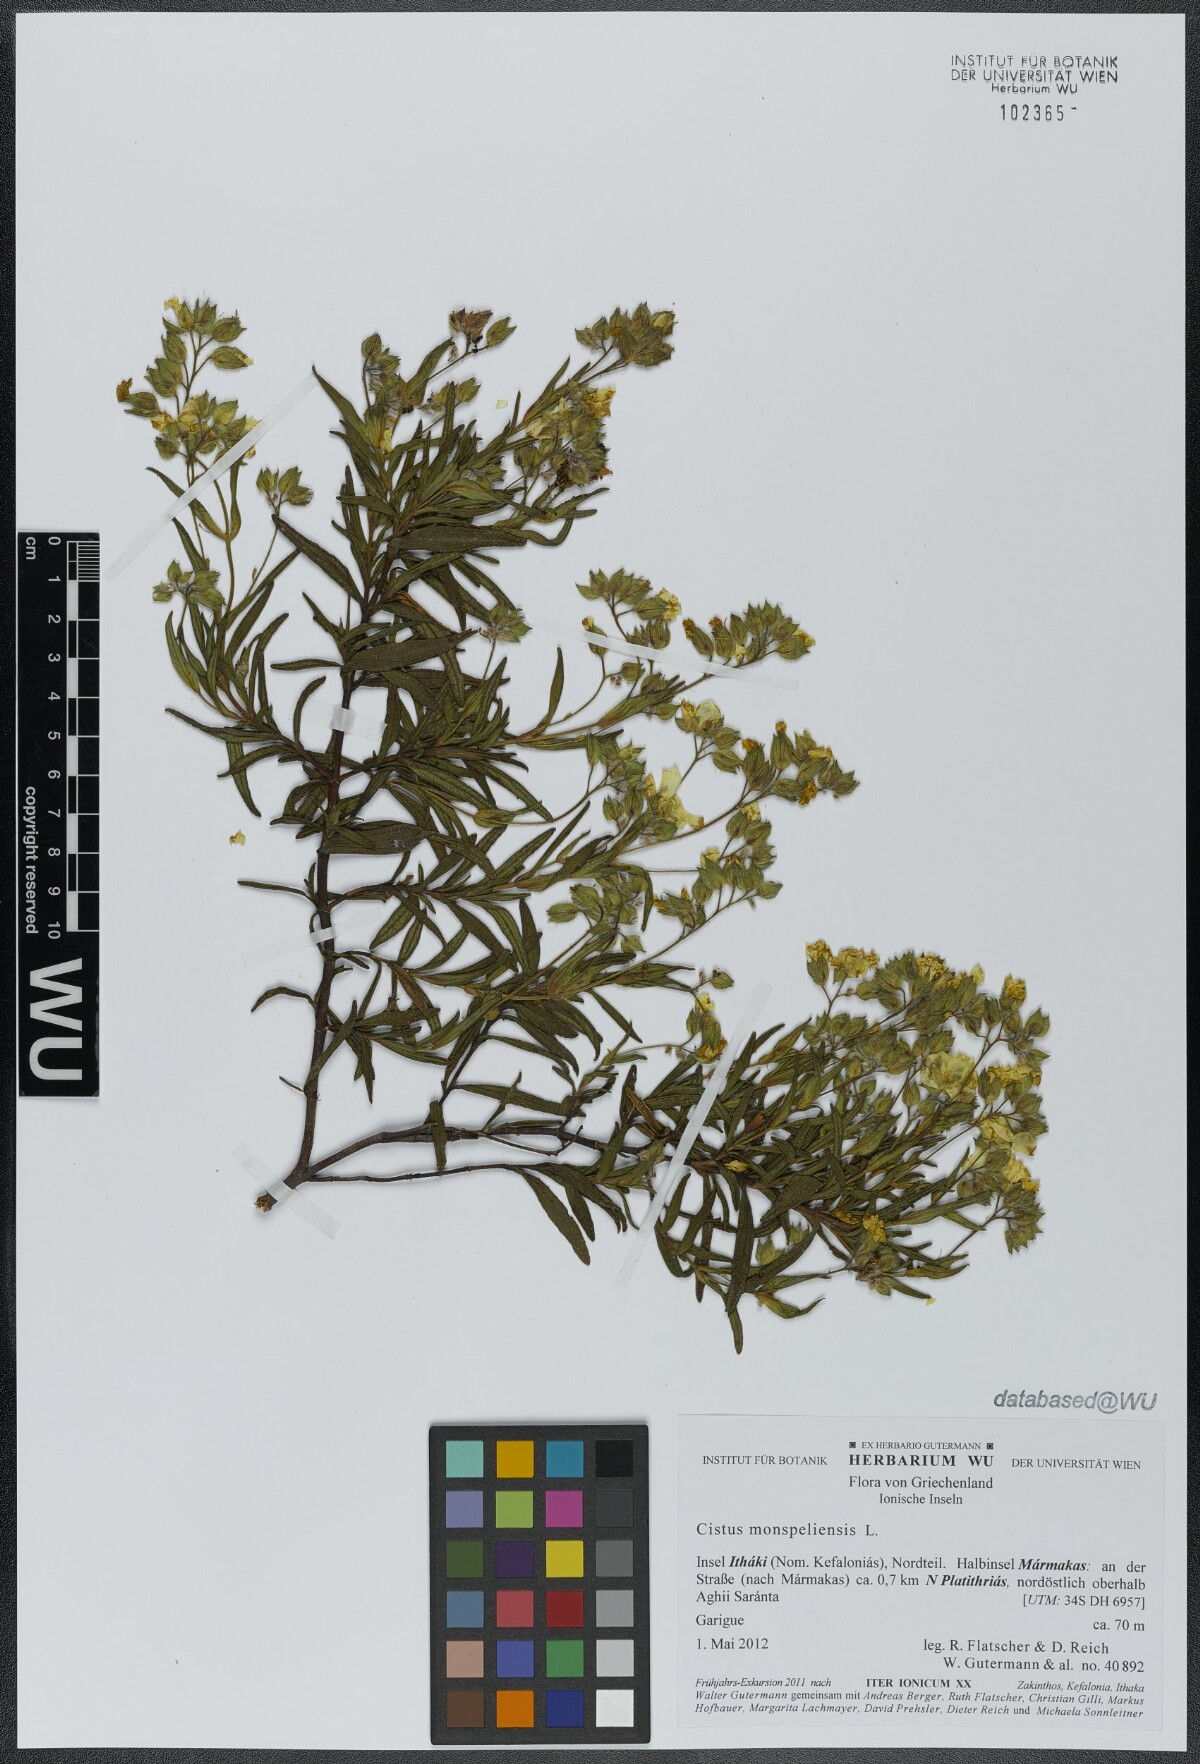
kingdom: Plantae
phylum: Tracheophyta
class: Magnoliopsida
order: Malvales
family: Cistaceae
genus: Cistus
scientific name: Cistus monspeliensis
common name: Montpelier cistus
